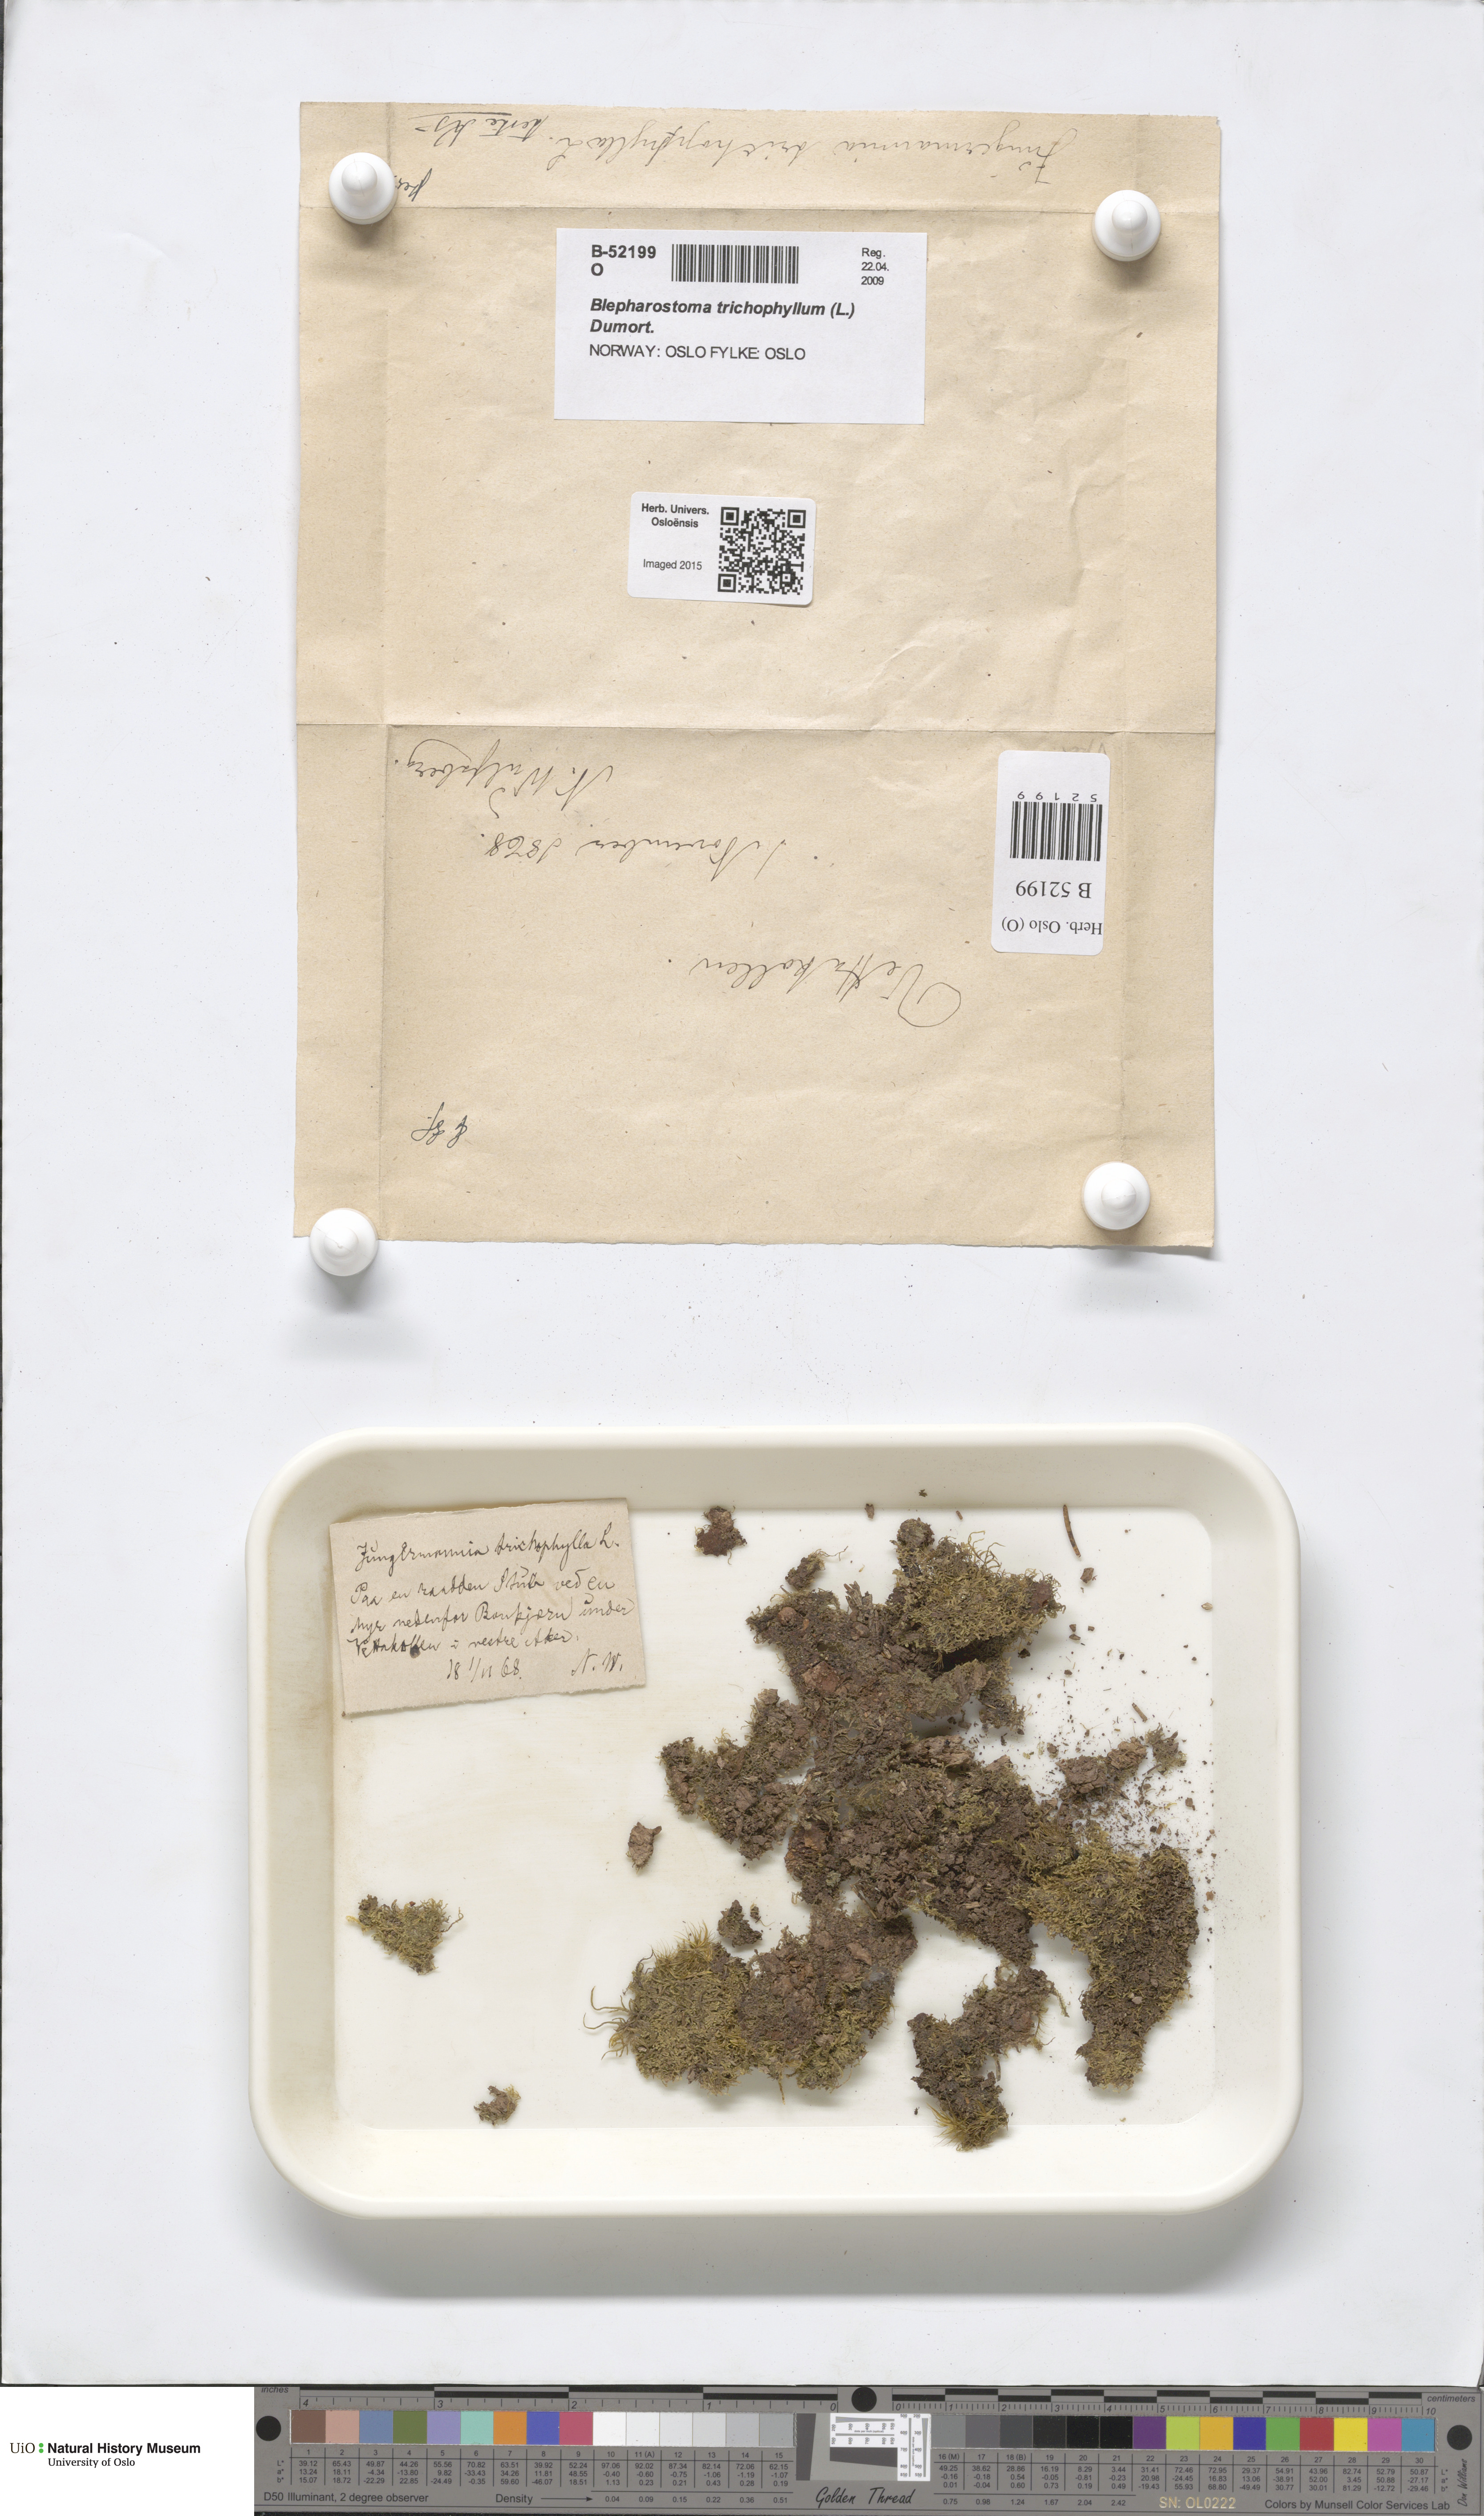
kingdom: Plantae
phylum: Marchantiophyta
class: Jungermanniopsida
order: Jungermanniales
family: Blepharostomataceae
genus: Blepharostoma
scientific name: Blepharostoma trichophyllum
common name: Hairy threadwort
